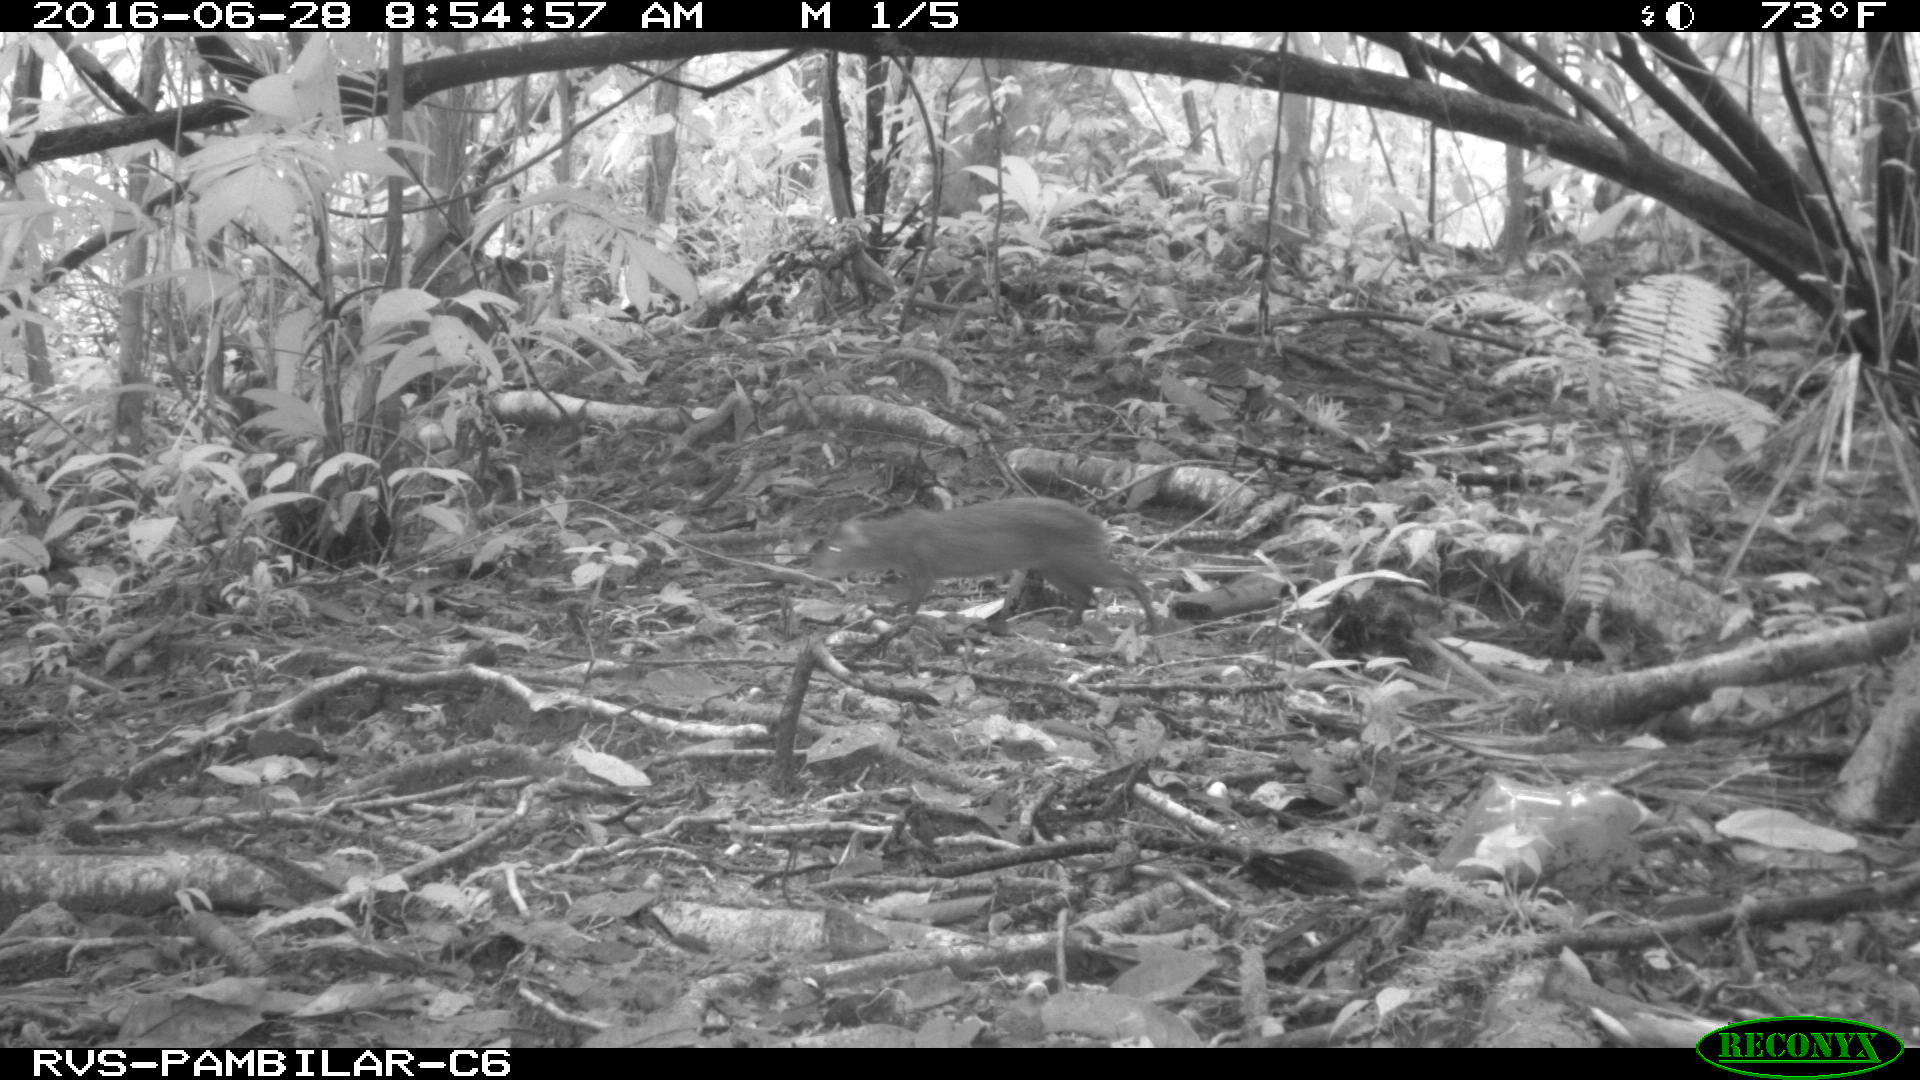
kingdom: Animalia
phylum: Chordata
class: Mammalia
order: Rodentia
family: Dasyproctidae
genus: Dasyprocta
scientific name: Dasyprocta punctata
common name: Central american agouti
